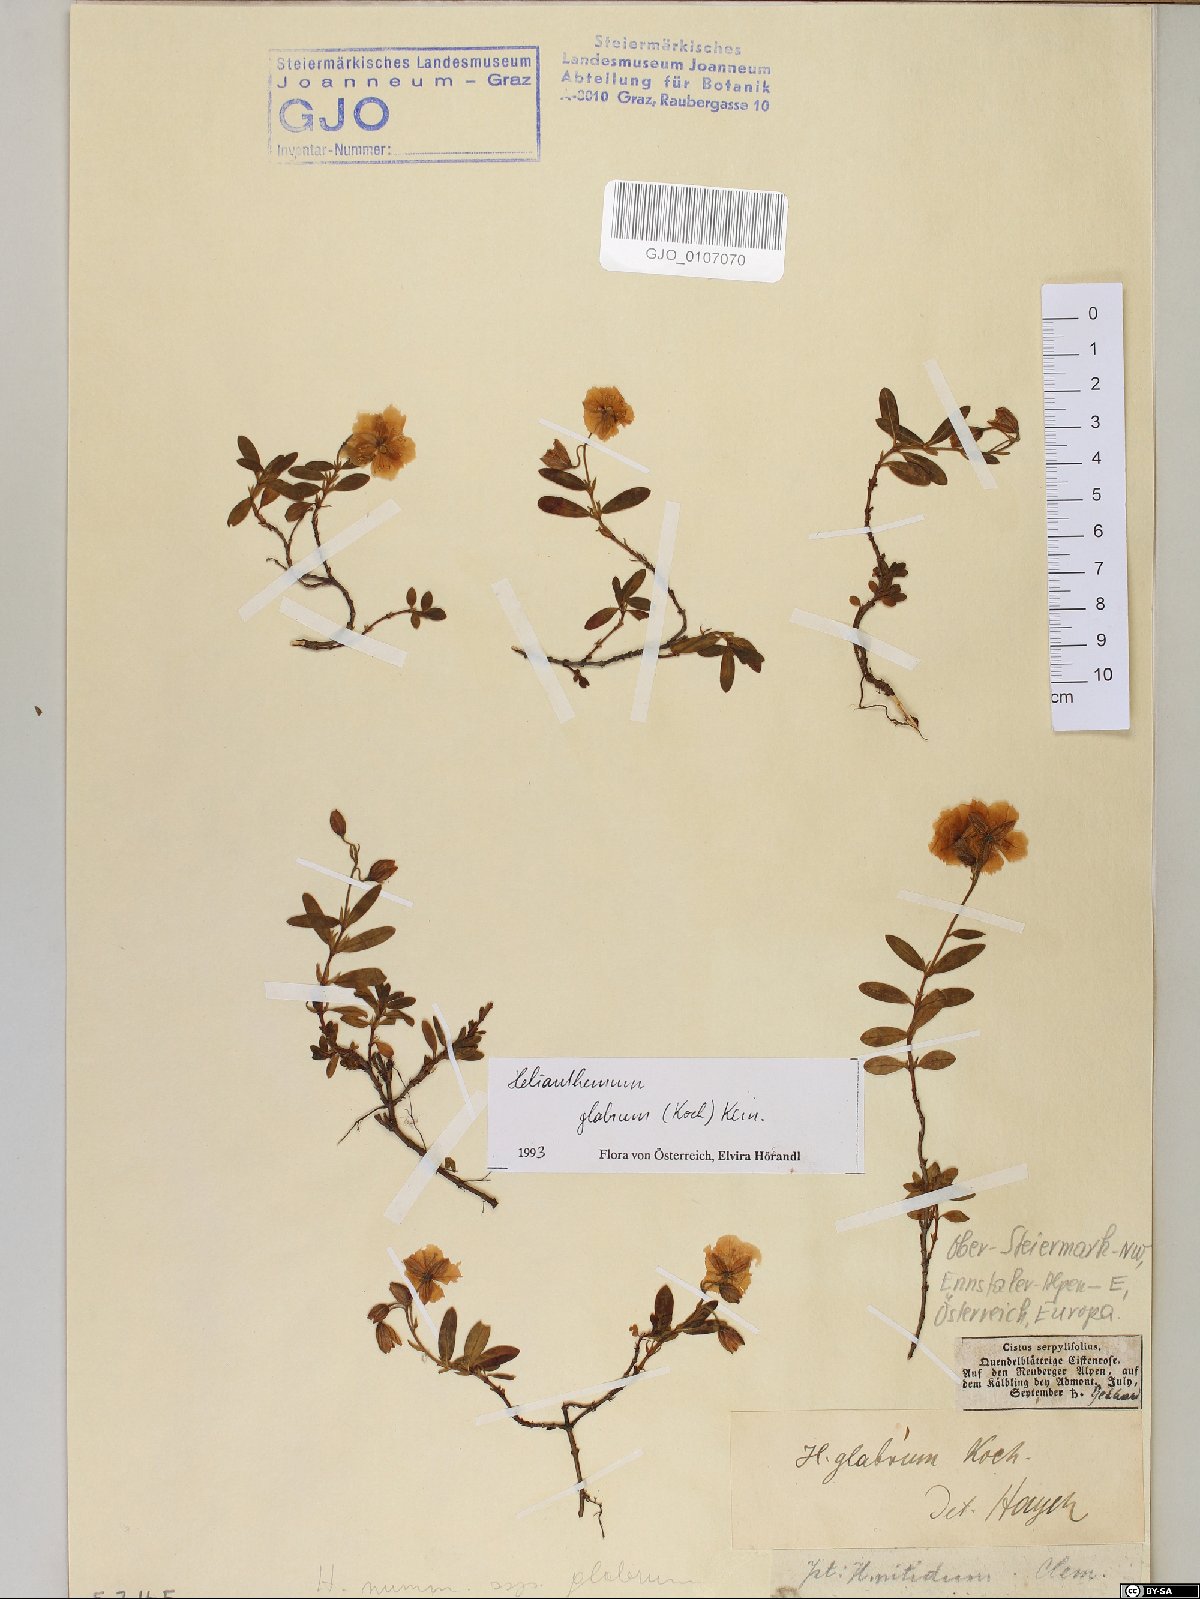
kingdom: Plantae
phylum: Tracheophyta
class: Magnoliopsida
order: Malvales
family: Cistaceae
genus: Helianthemum
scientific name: Helianthemum nummularium
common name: Common rock-rose
